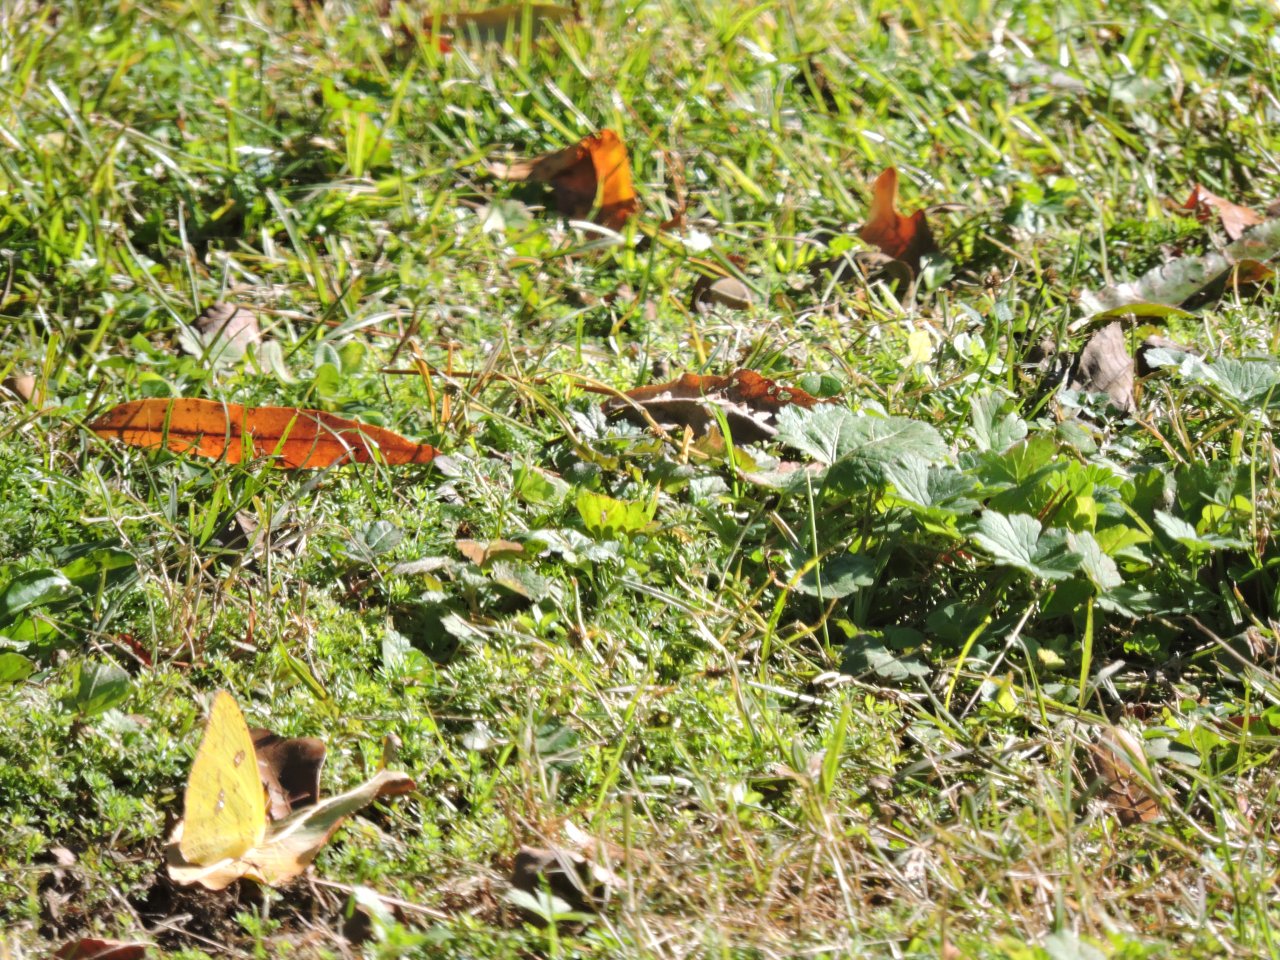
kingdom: Animalia
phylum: Arthropoda
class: Insecta
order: Lepidoptera
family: Pieridae
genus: Phoebis
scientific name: Phoebis sennae
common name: Cloudless Sulphur
